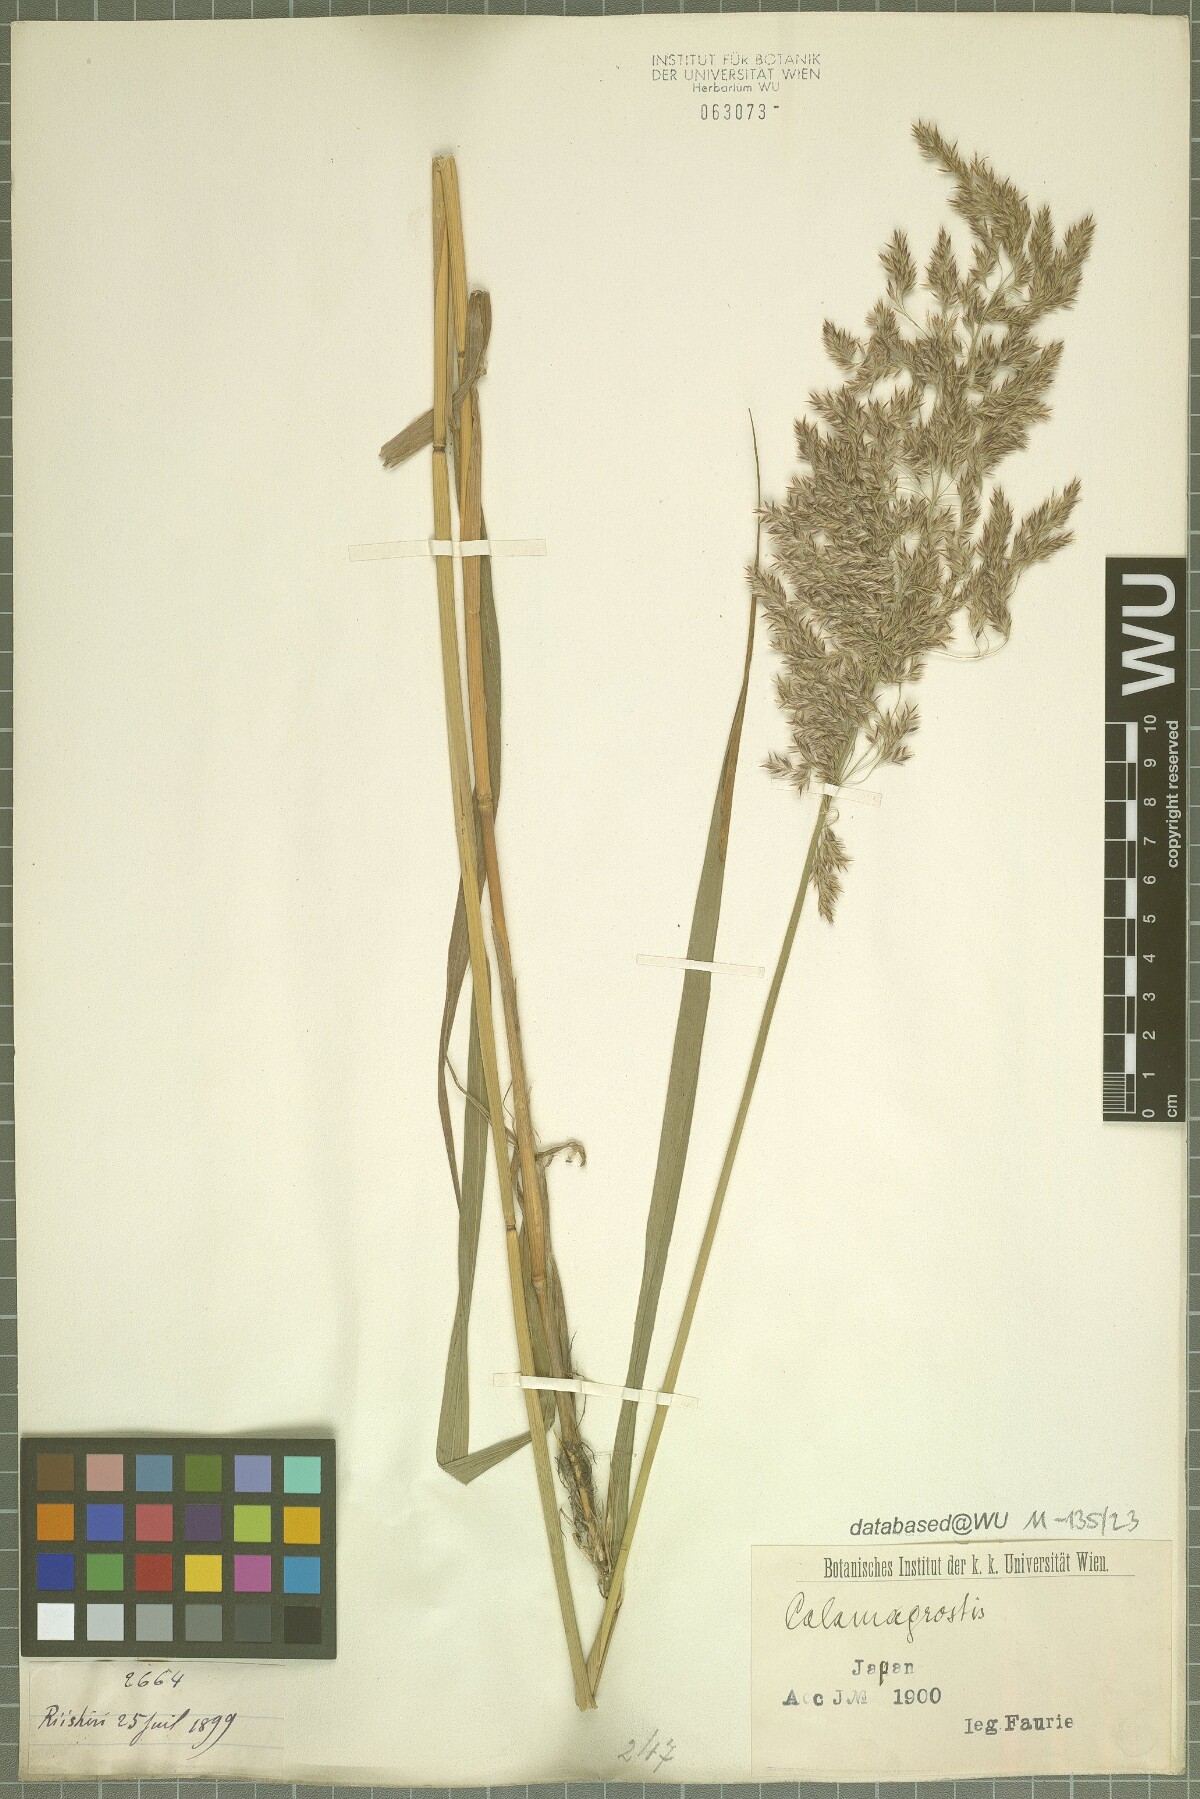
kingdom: Plantae
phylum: Tracheophyta
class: Liliopsida
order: Poales
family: Poaceae
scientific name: Poaceae
